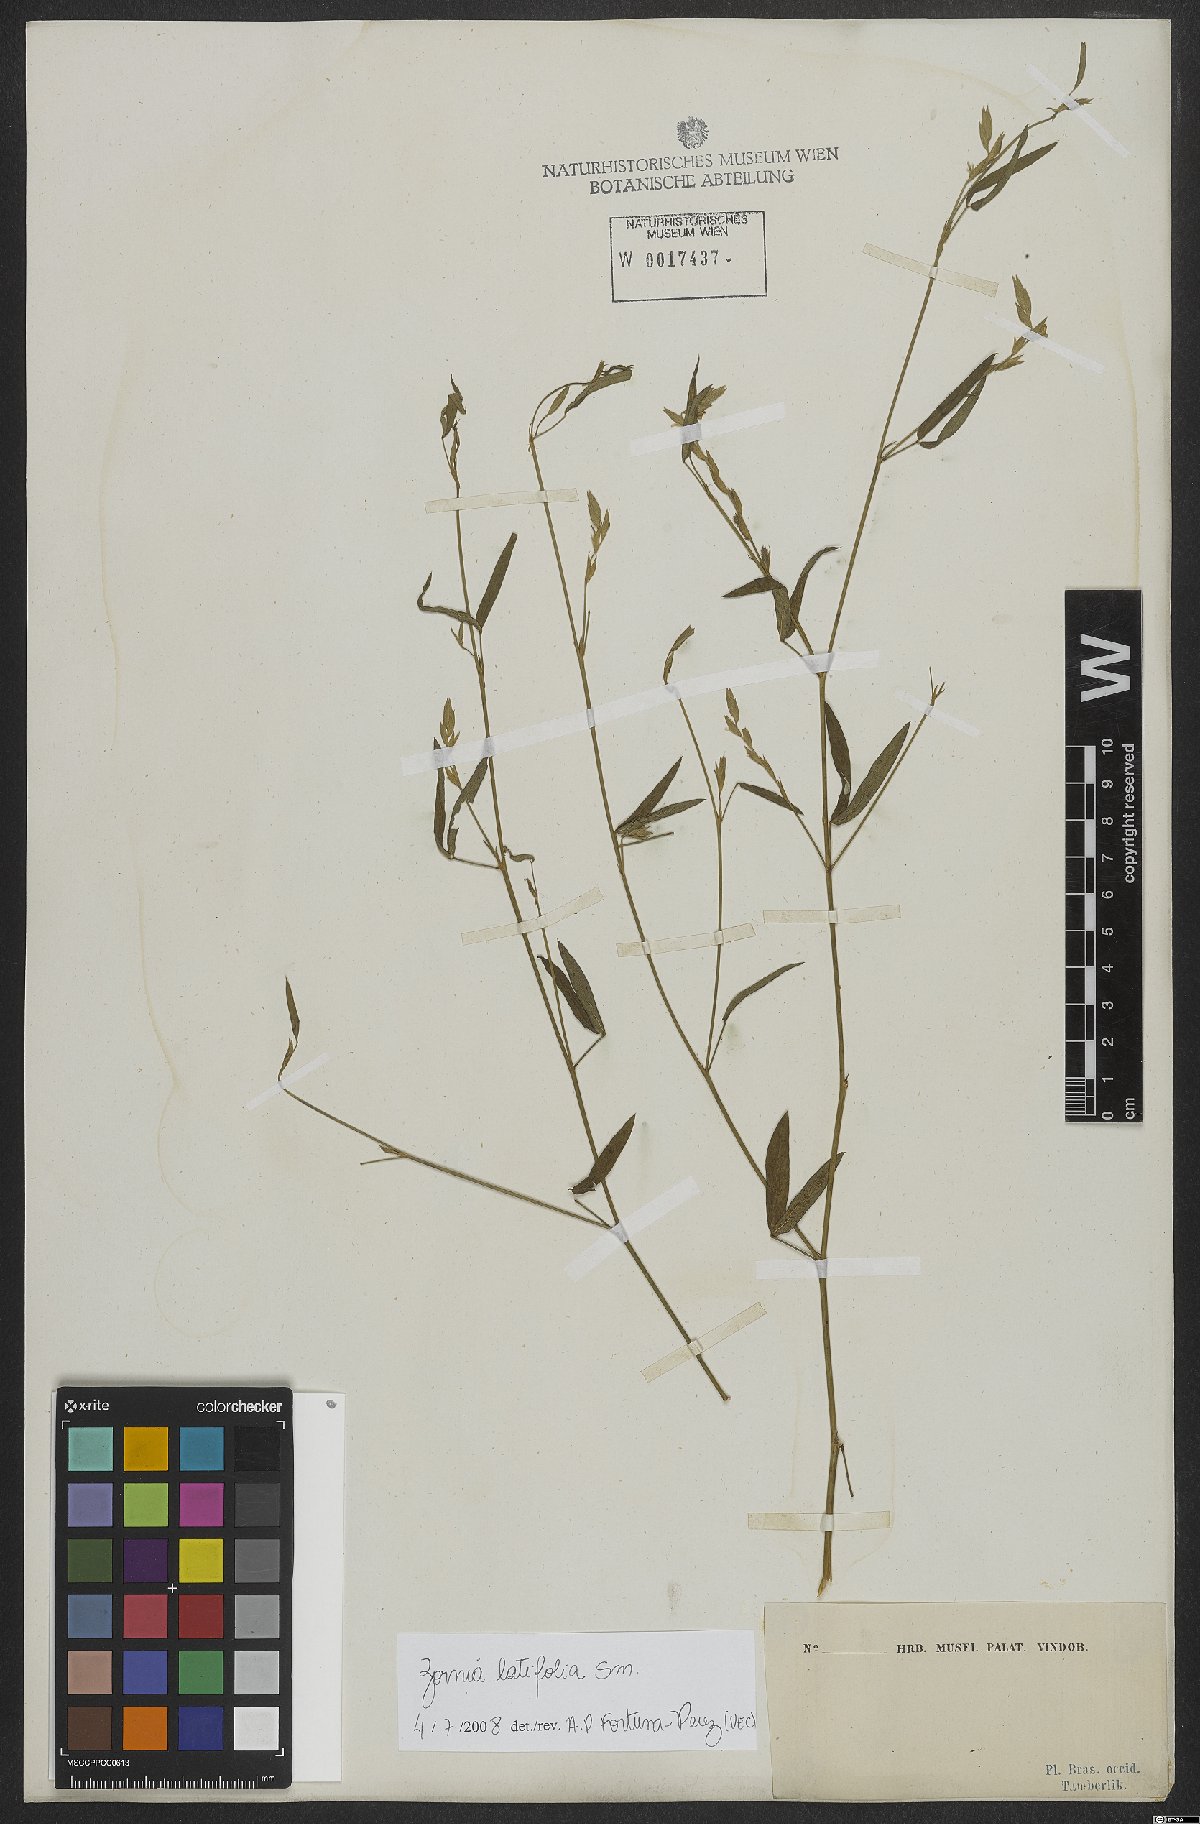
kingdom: Plantae
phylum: Tracheophyta
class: Magnoliopsida
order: Fabales
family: Fabaceae
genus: Zornia
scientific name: Zornia sericea
